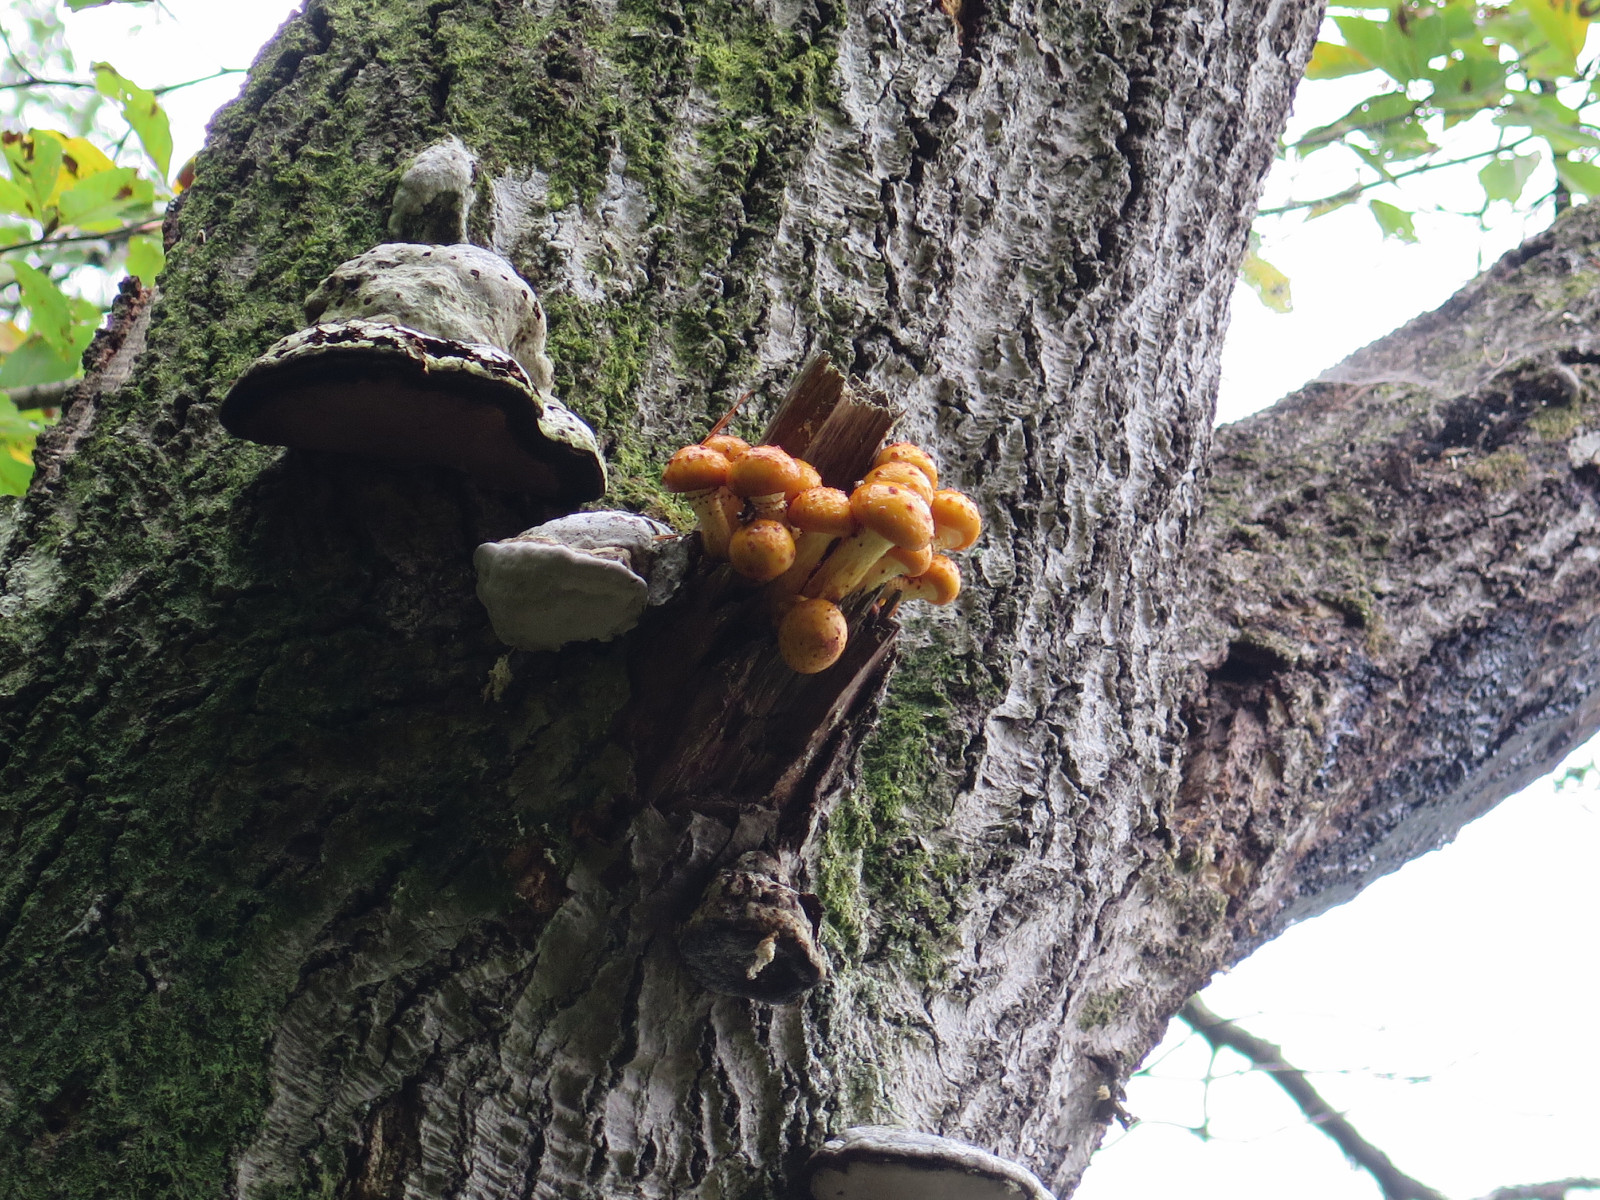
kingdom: Fungi
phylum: Basidiomycota
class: Agaricomycetes
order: Agaricales
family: Strophariaceae
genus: Pholiota
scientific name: Pholiota adiposa
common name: højtsiddende skælhat
